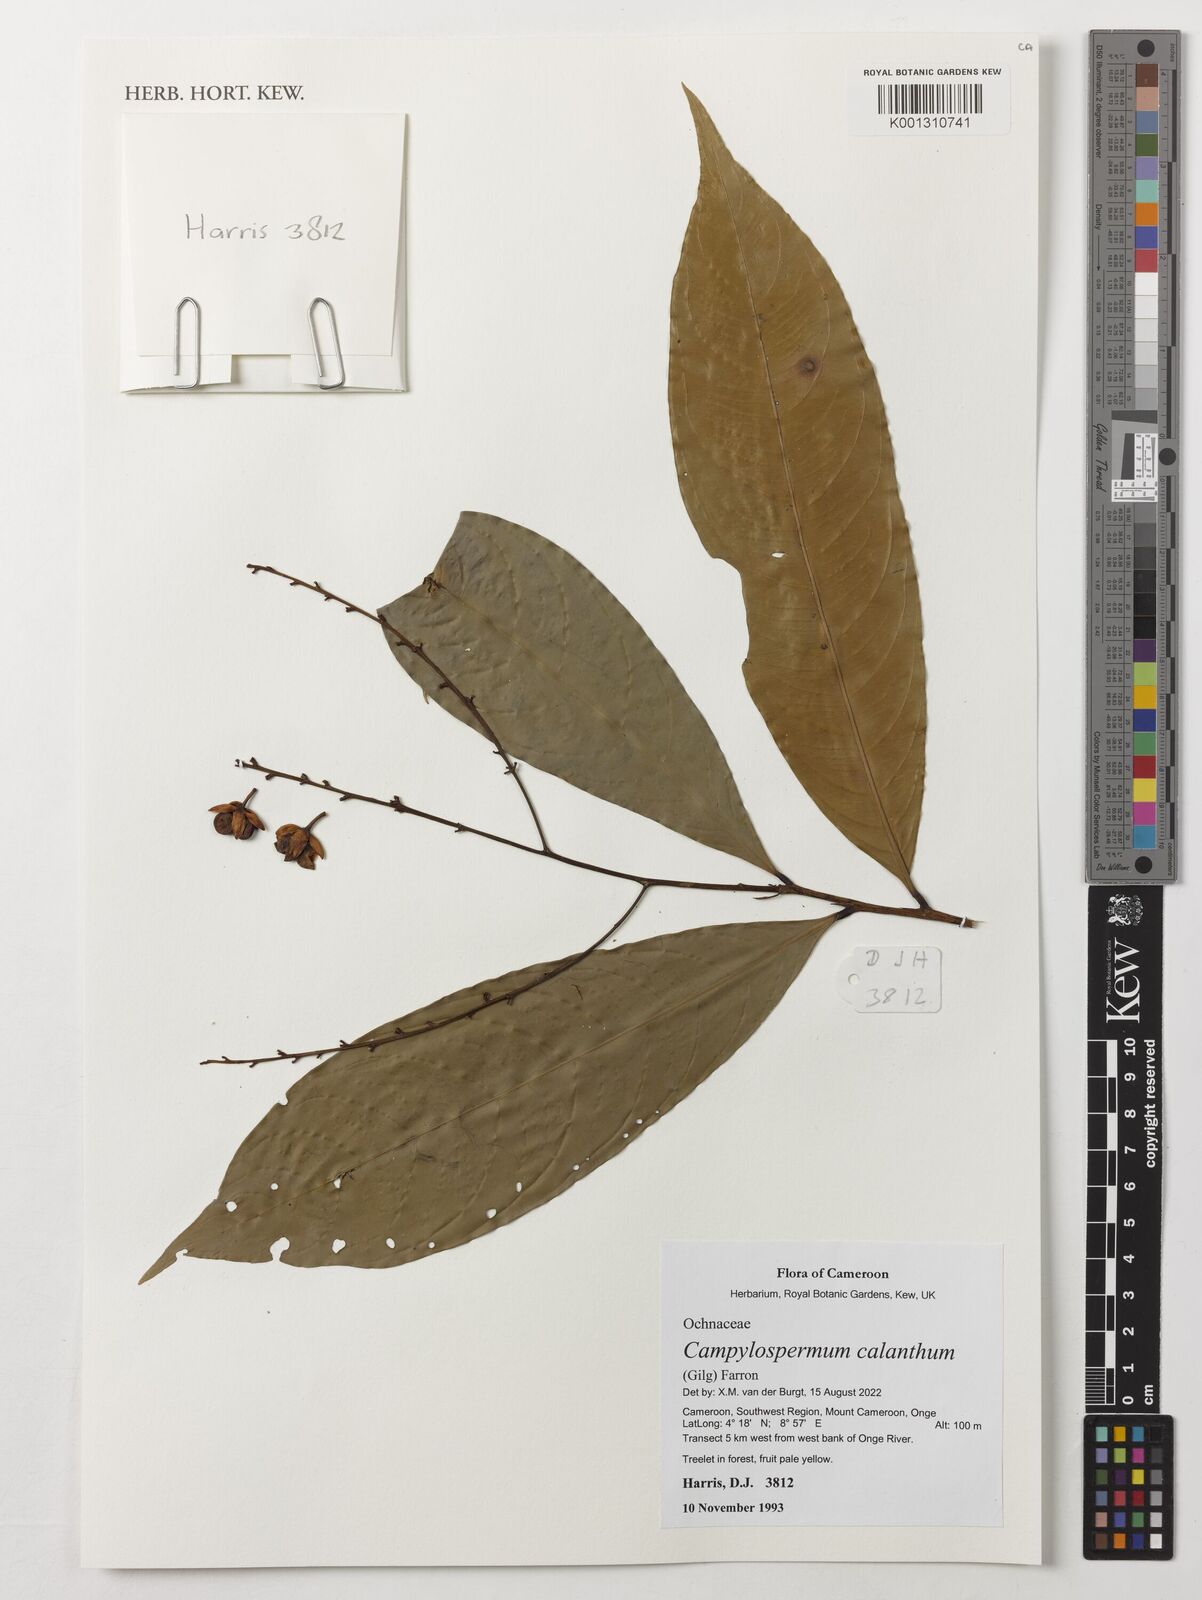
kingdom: Plantae
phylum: Tracheophyta
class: Magnoliopsida
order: Malpighiales
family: Ochnaceae
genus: Campylospermum
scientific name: Campylospermum calanthum
